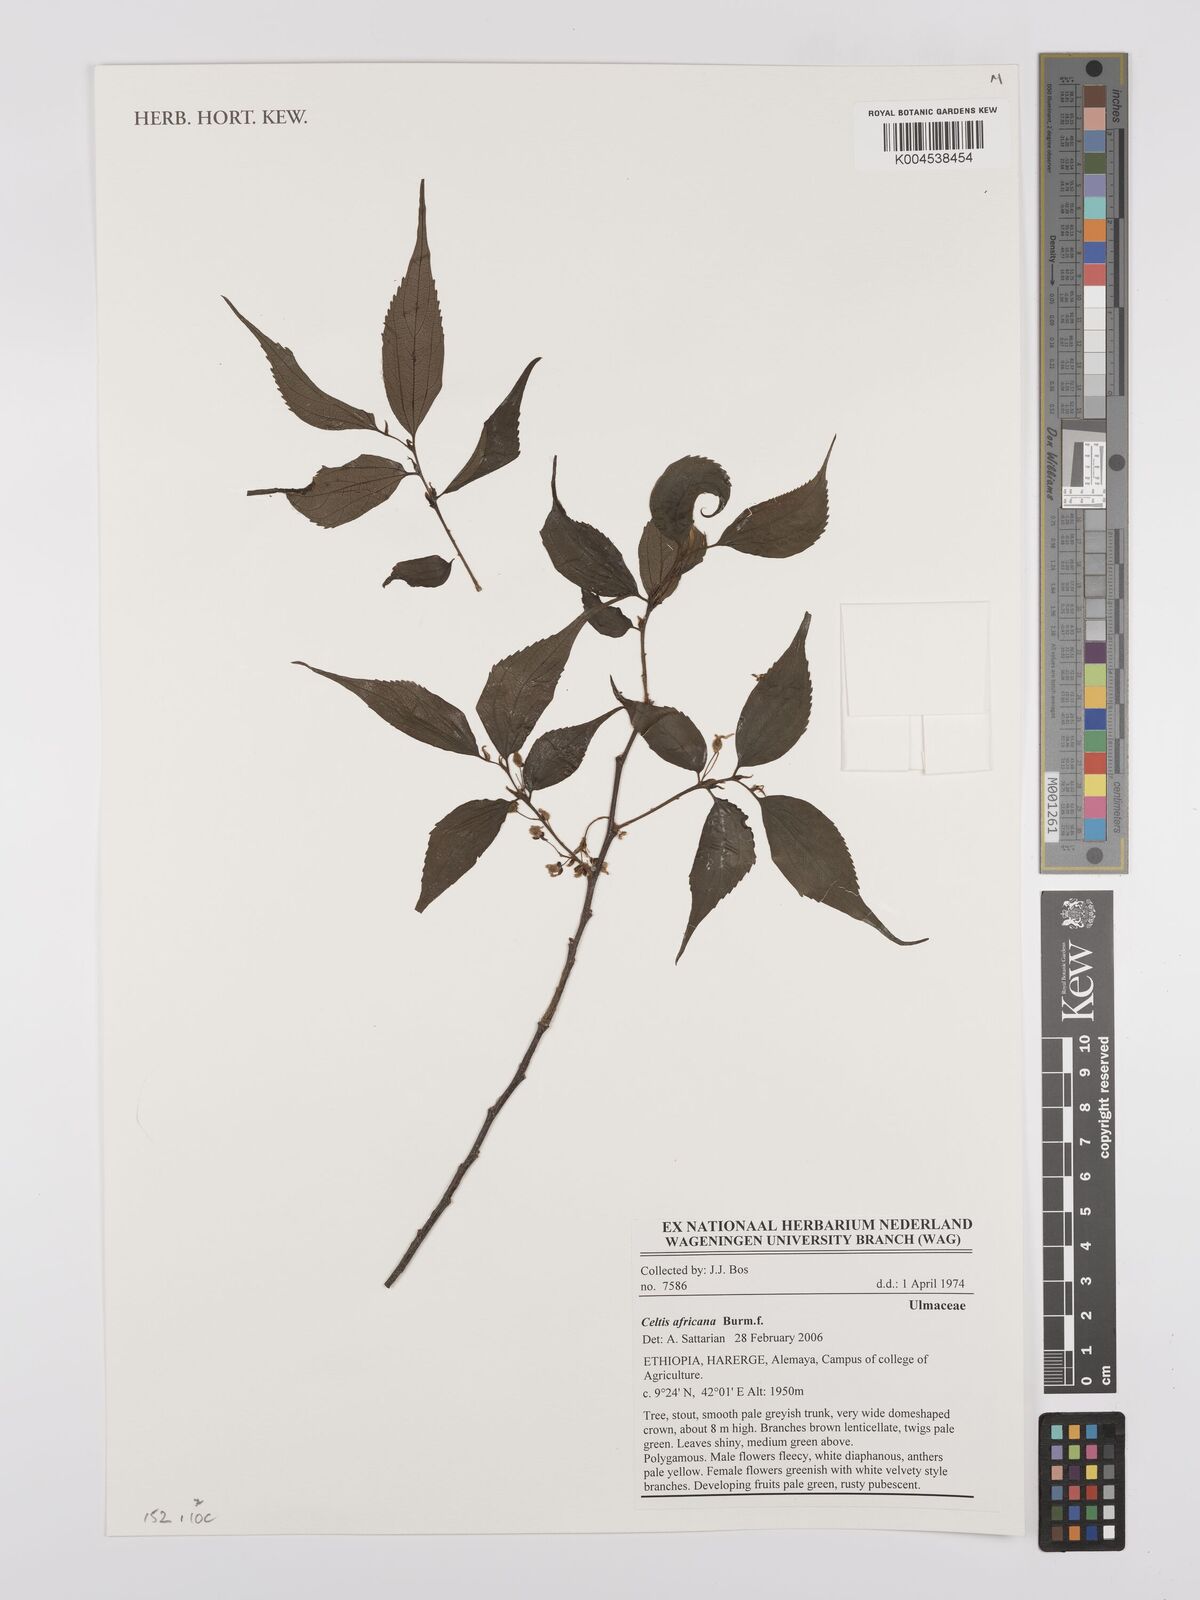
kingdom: Plantae
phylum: Tracheophyta
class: Magnoliopsida
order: Rosales
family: Cannabaceae
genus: Celtis
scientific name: Celtis africana
